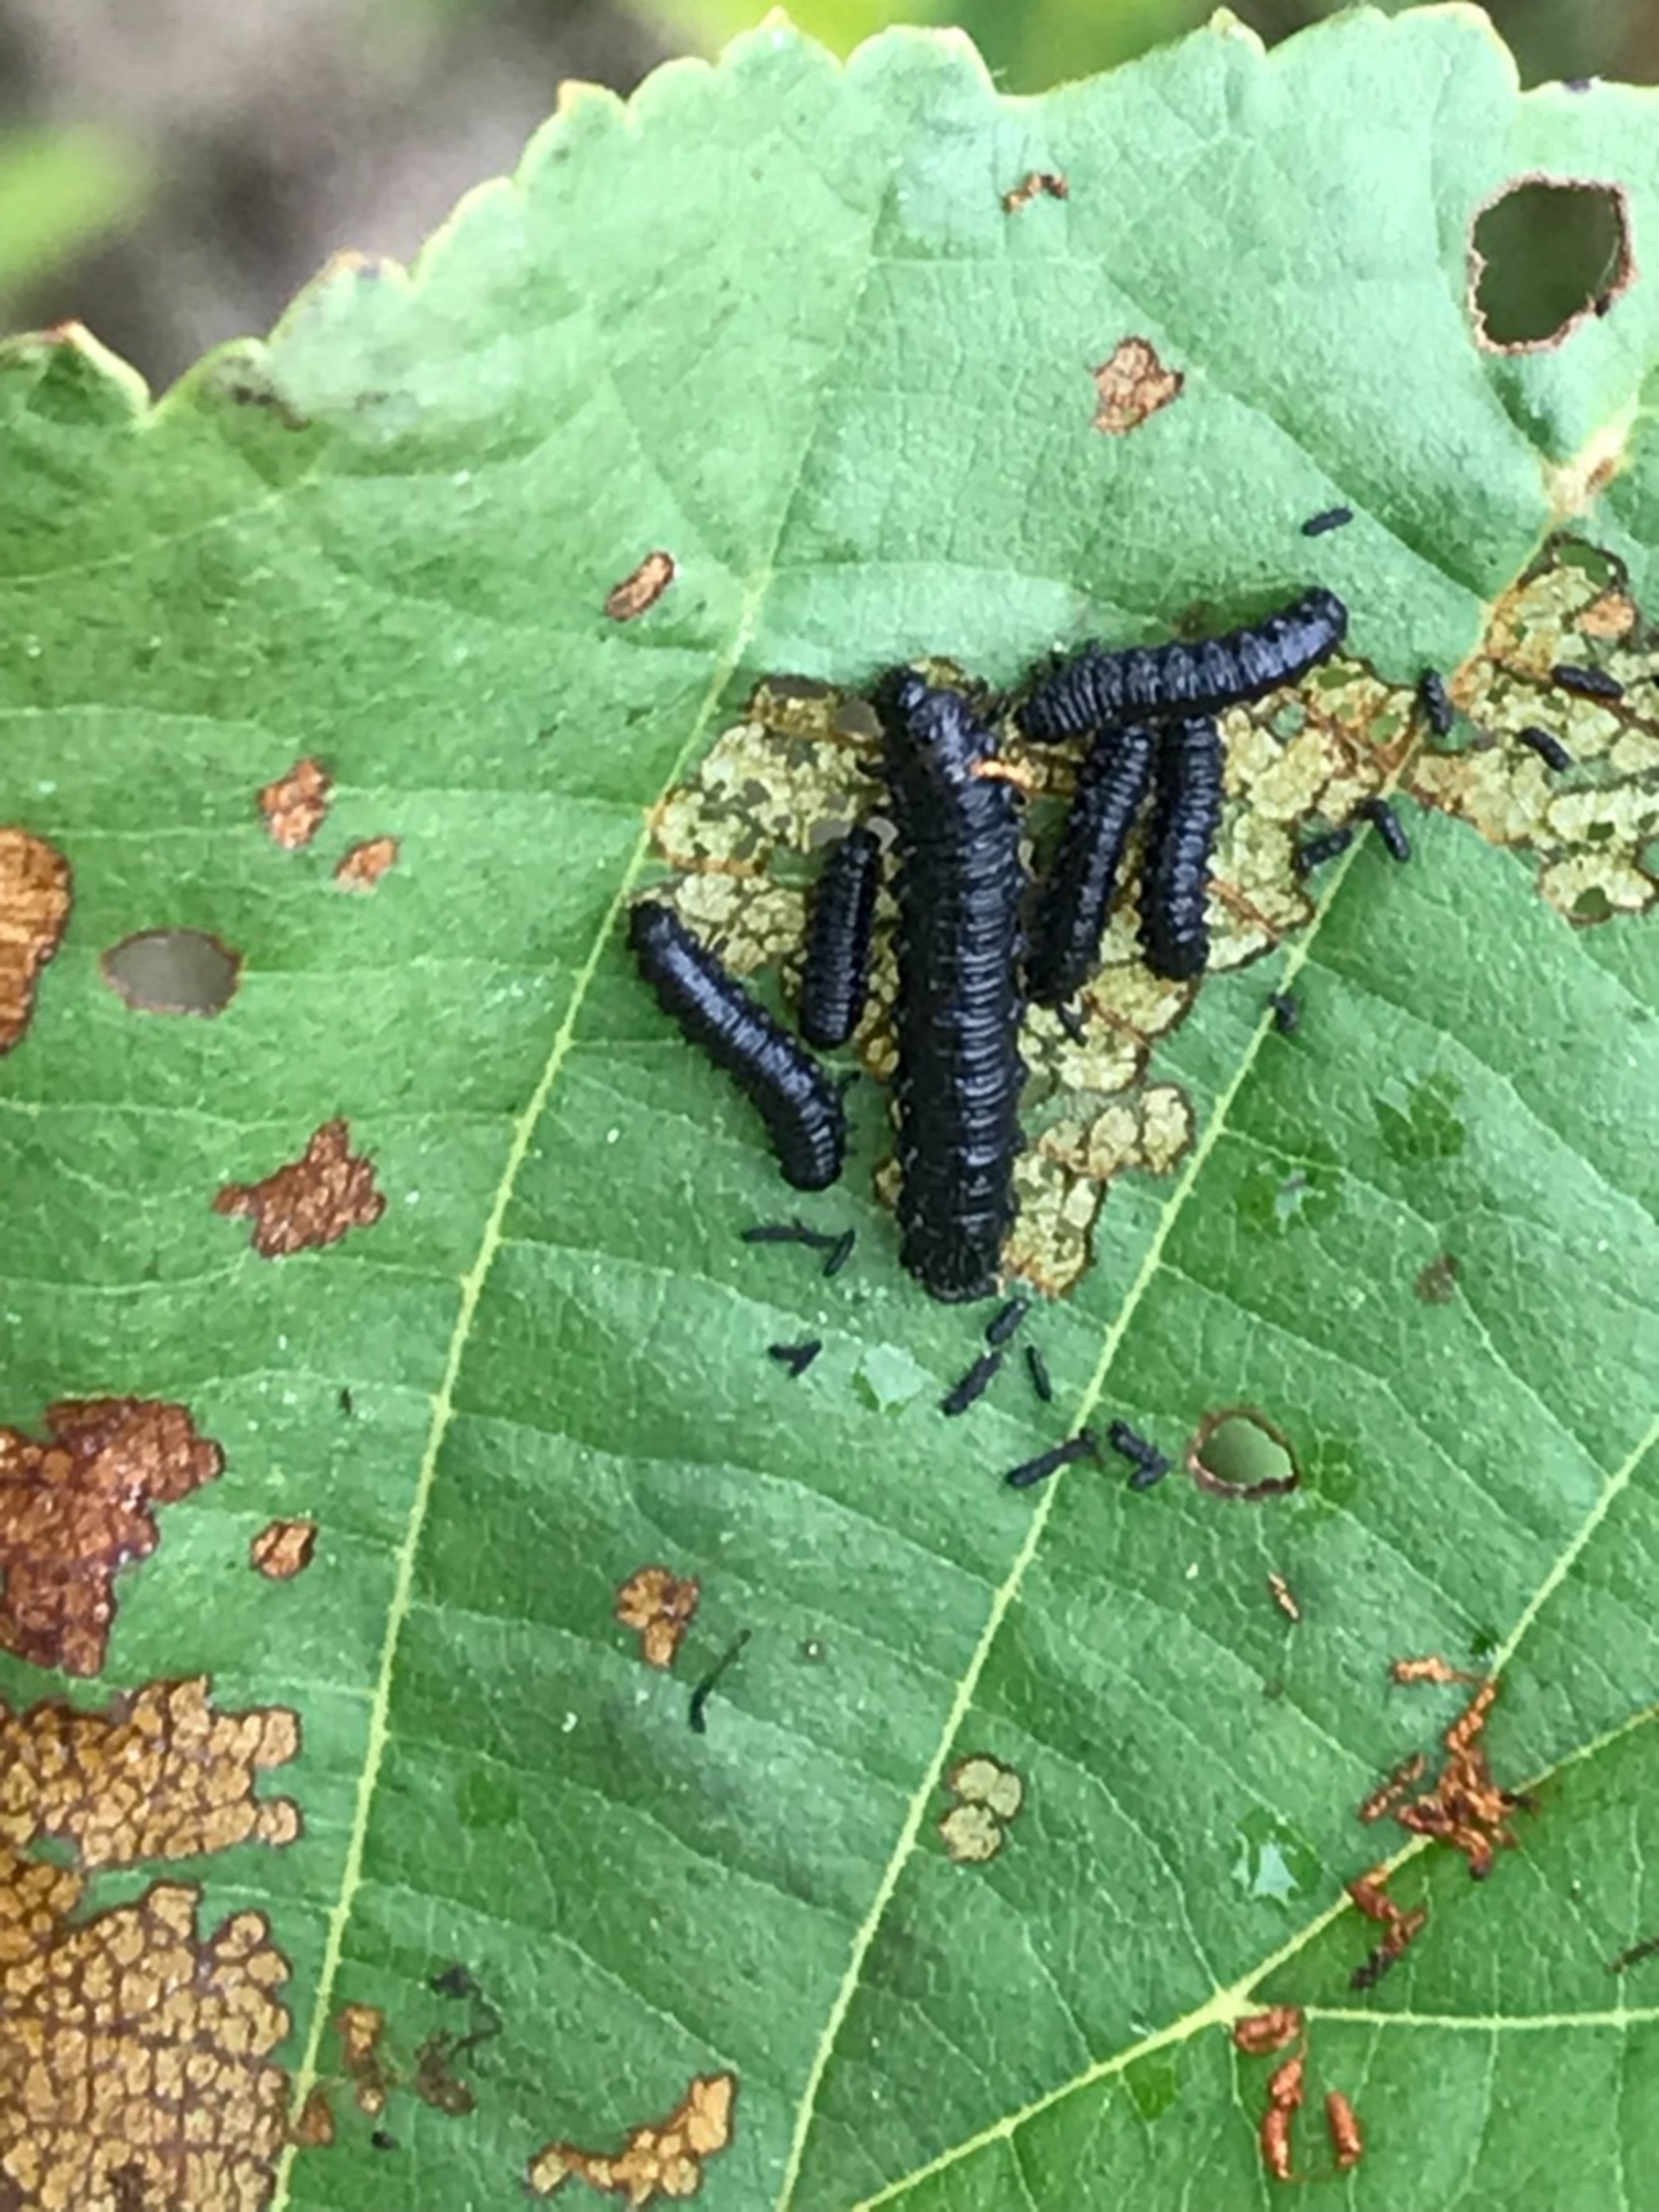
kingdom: Animalia
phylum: Arthropoda
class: Insecta
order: Coleoptera
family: Chrysomelidae
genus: Agelastica
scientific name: Agelastica alni
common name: Ellebladbille
